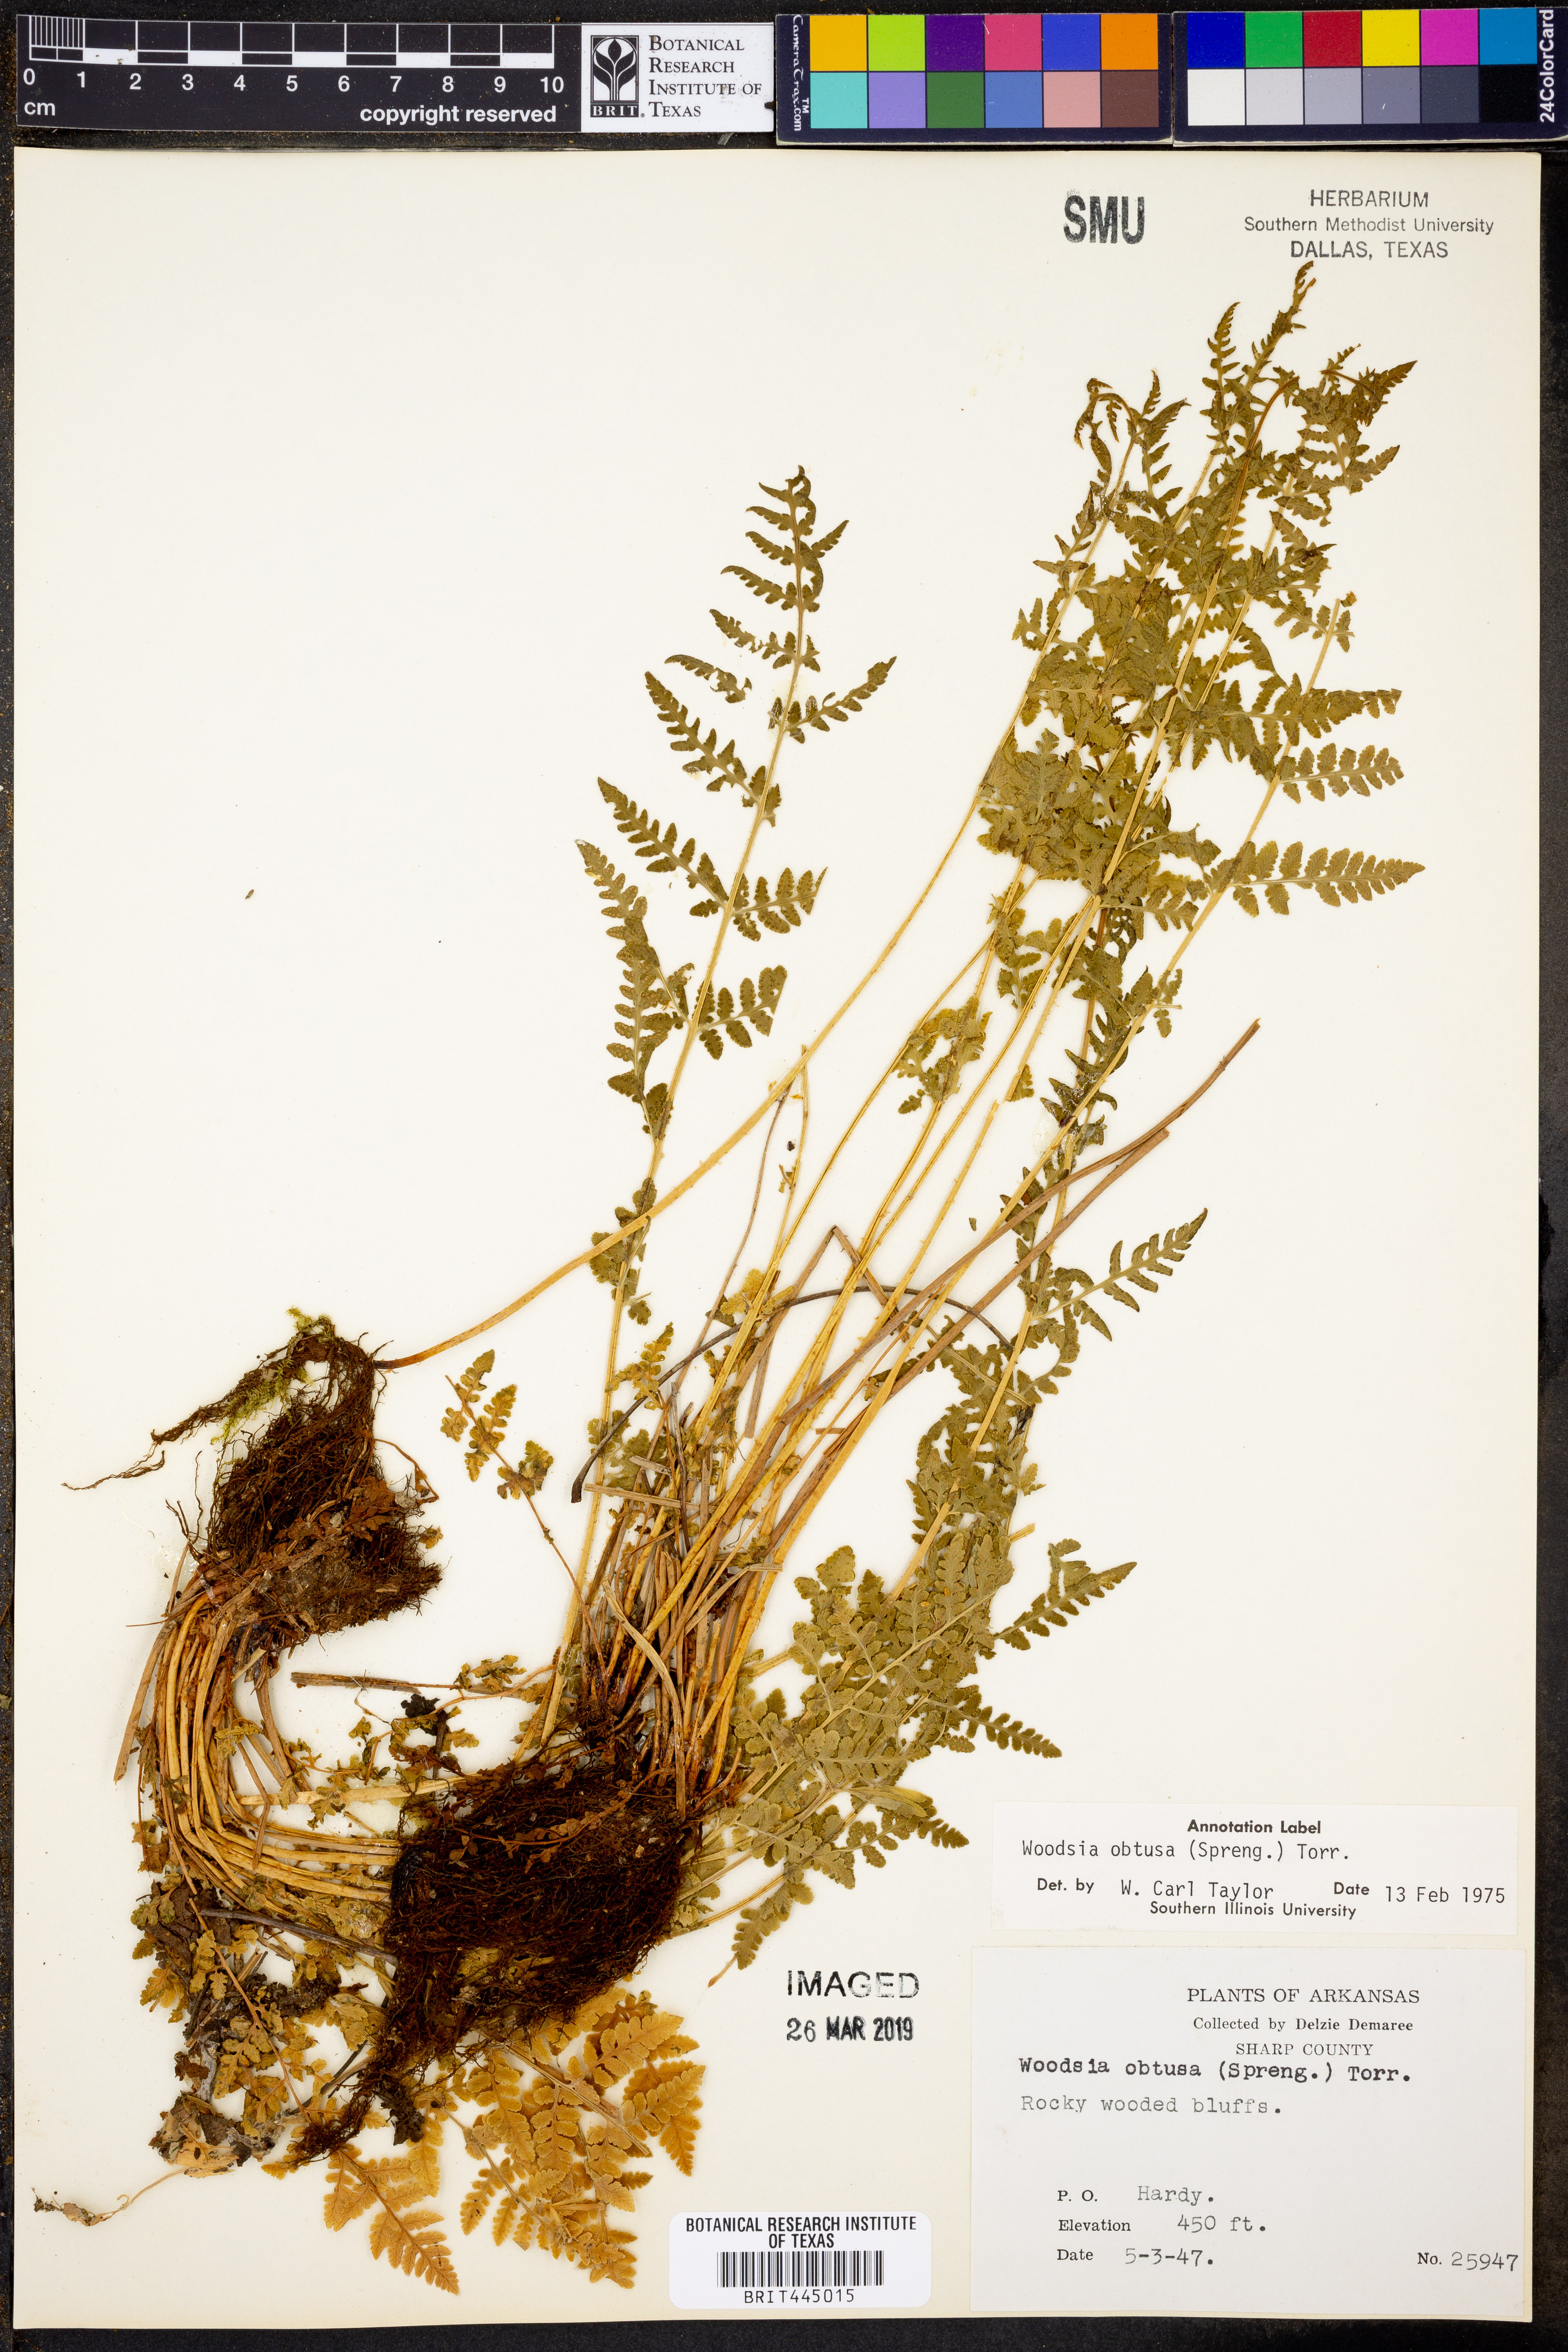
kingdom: Plantae
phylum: Tracheophyta
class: Polypodiopsida
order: Polypodiales
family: Woodsiaceae
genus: Physematium
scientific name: Physematium obtusum
